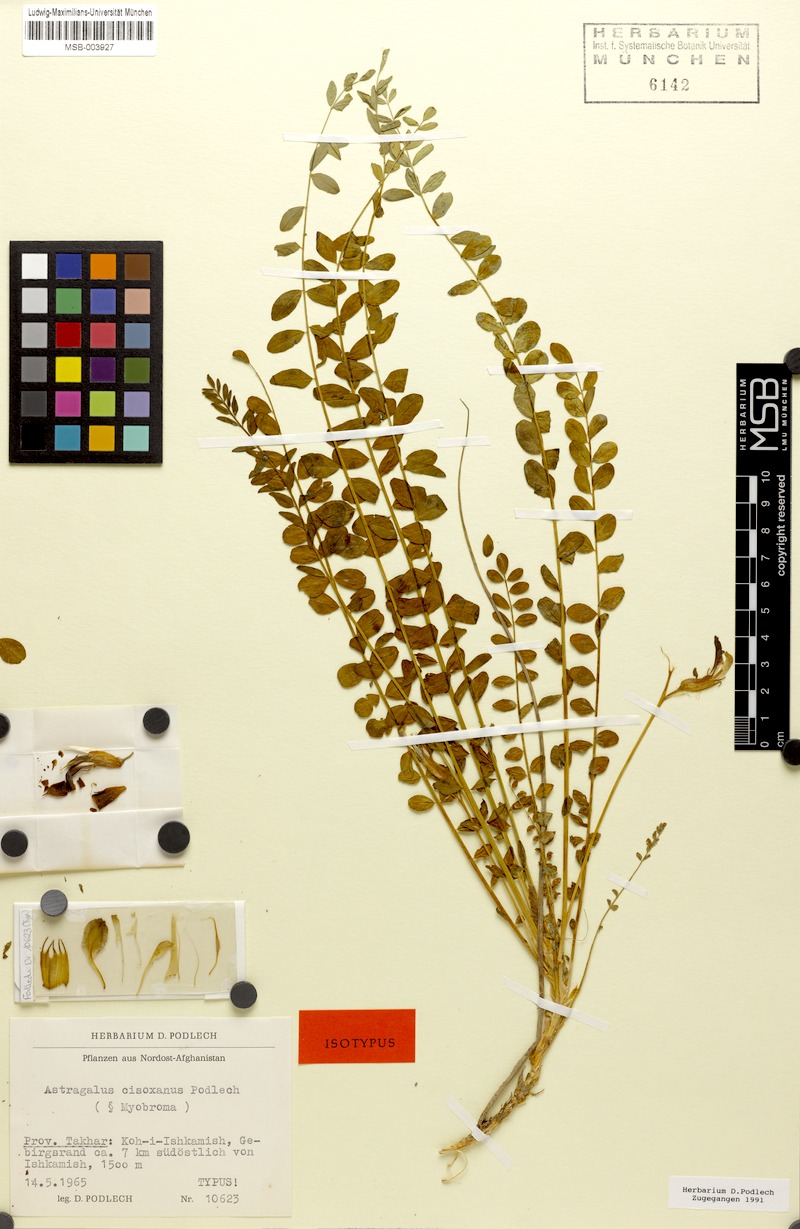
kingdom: Plantae
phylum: Tracheophyta
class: Magnoliopsida
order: Fabales
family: Fabaceae
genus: Astragalus
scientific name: Astragalus cisoxanus
